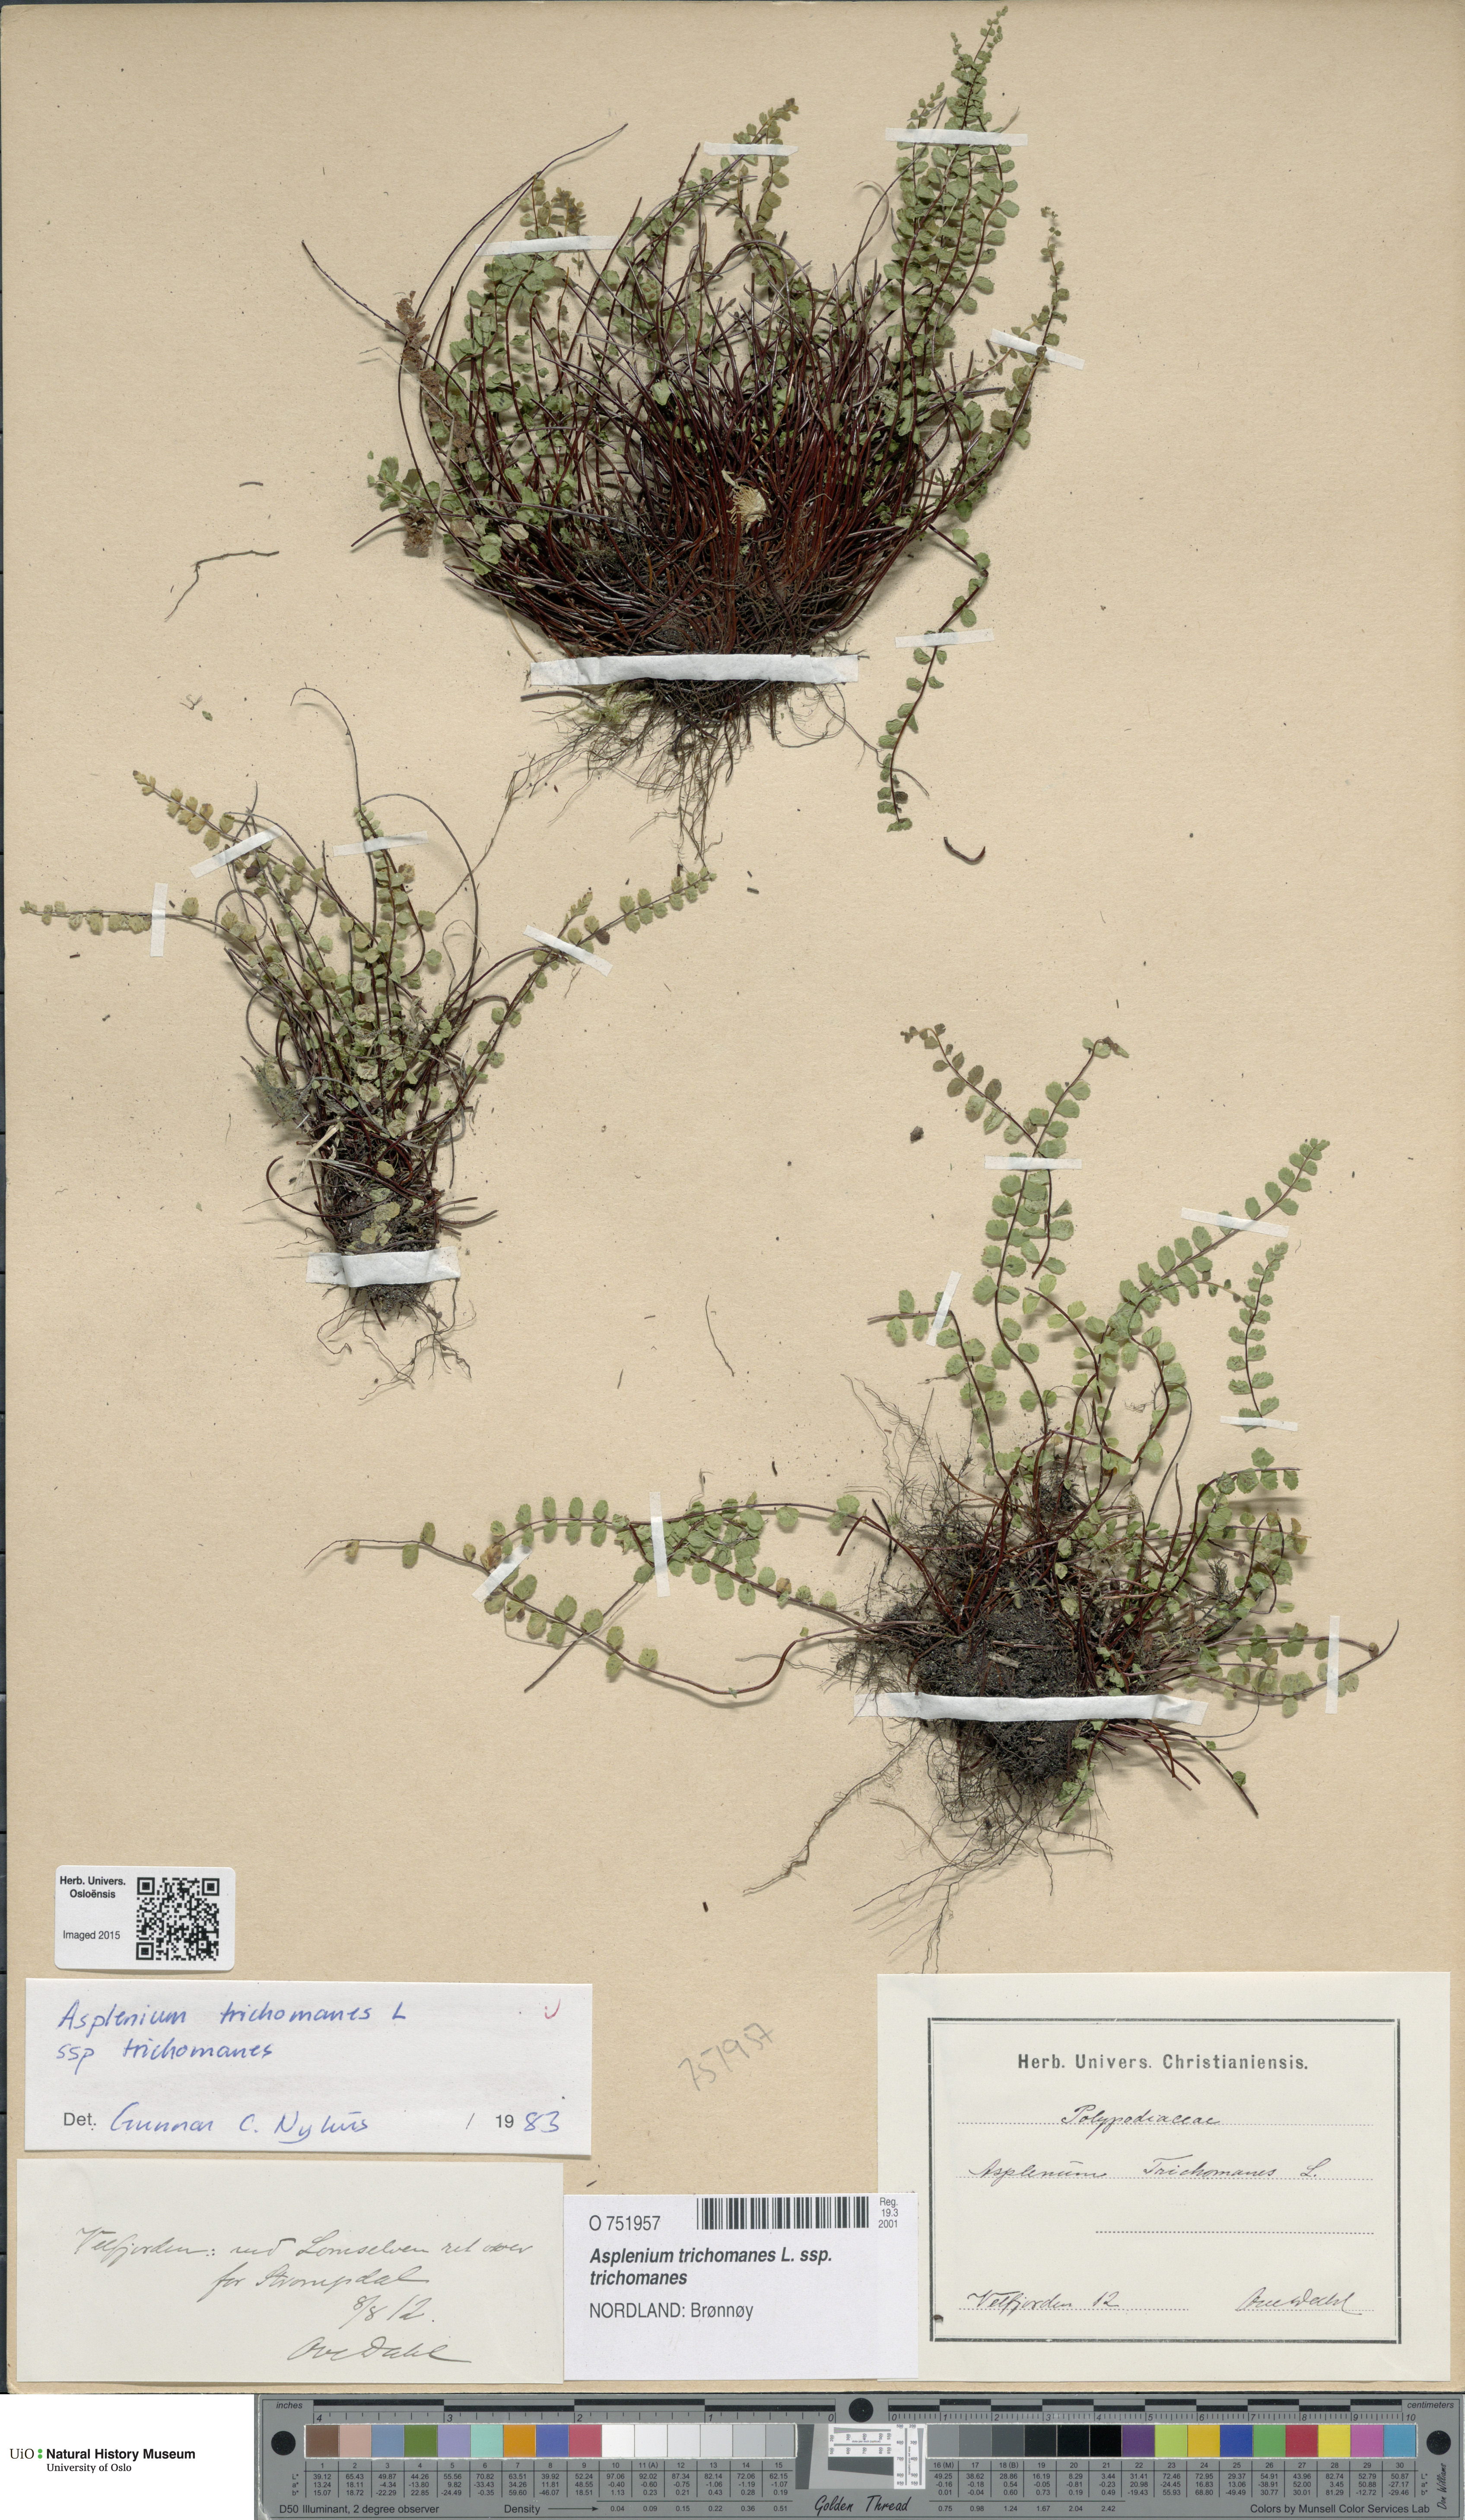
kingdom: Plantae
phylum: Tracheophyta
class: Polypodiopsida
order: Polypodiales
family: Aspleniaceae
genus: Asplenium
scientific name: Asplenium trichomanes
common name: Maidenhair spleenwort
